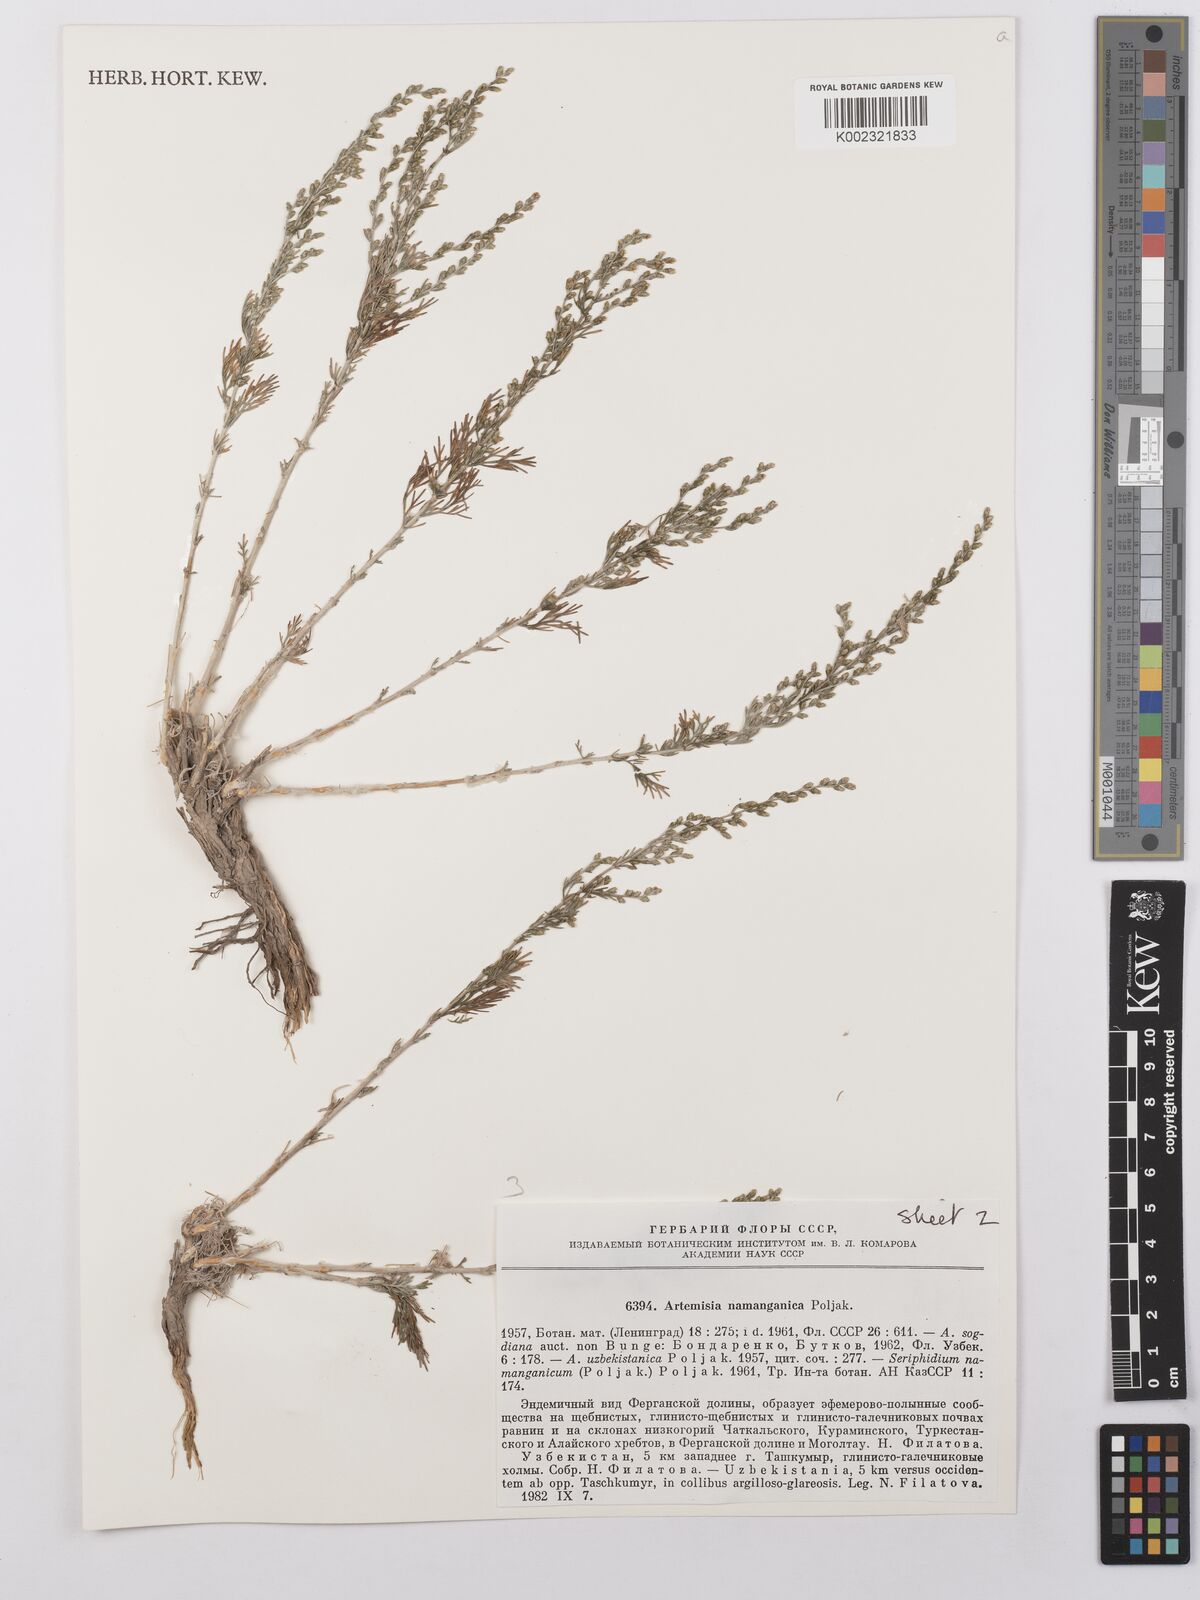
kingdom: Plantae
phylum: Tracheophyta
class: Magnoliopsida
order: Asterales
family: Asteraceae
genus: Artemisia
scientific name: Artemisia namanganica
